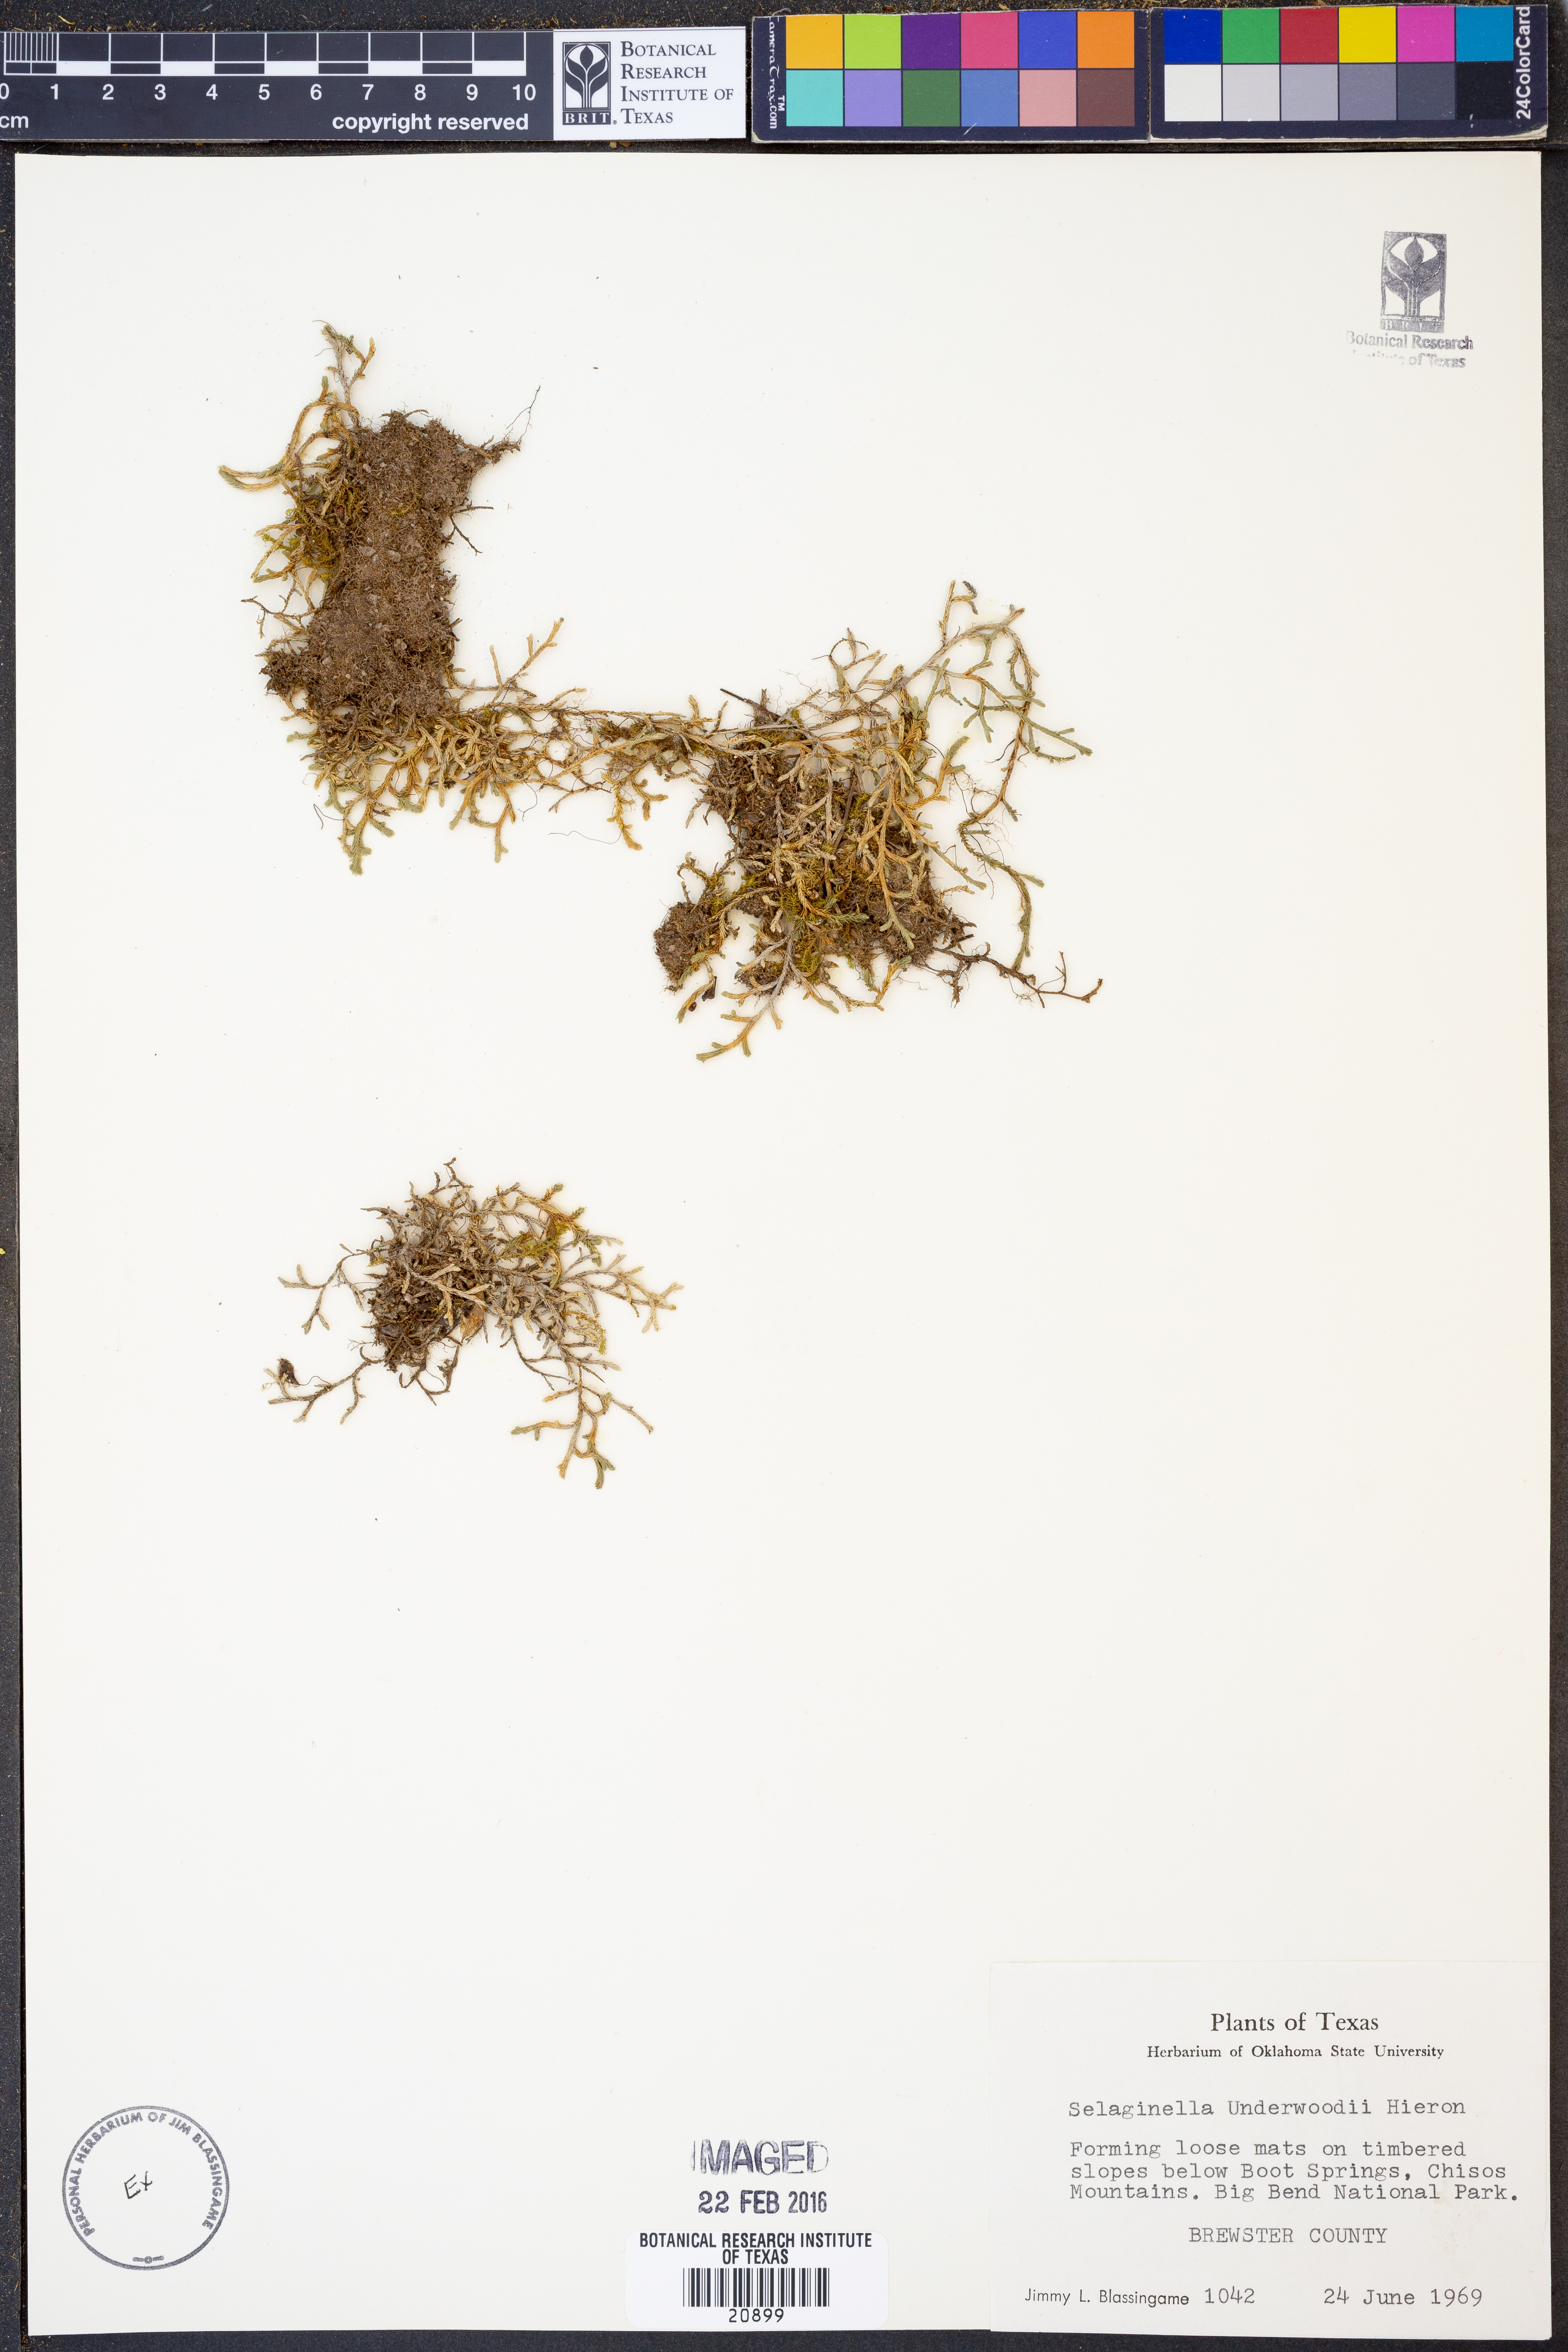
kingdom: Plantae
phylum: Tracheophyta
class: Lycopodiopsida
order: Selaginellales
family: Selaginellaceae
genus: Selaginella
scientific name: Selaginella underwoodii
